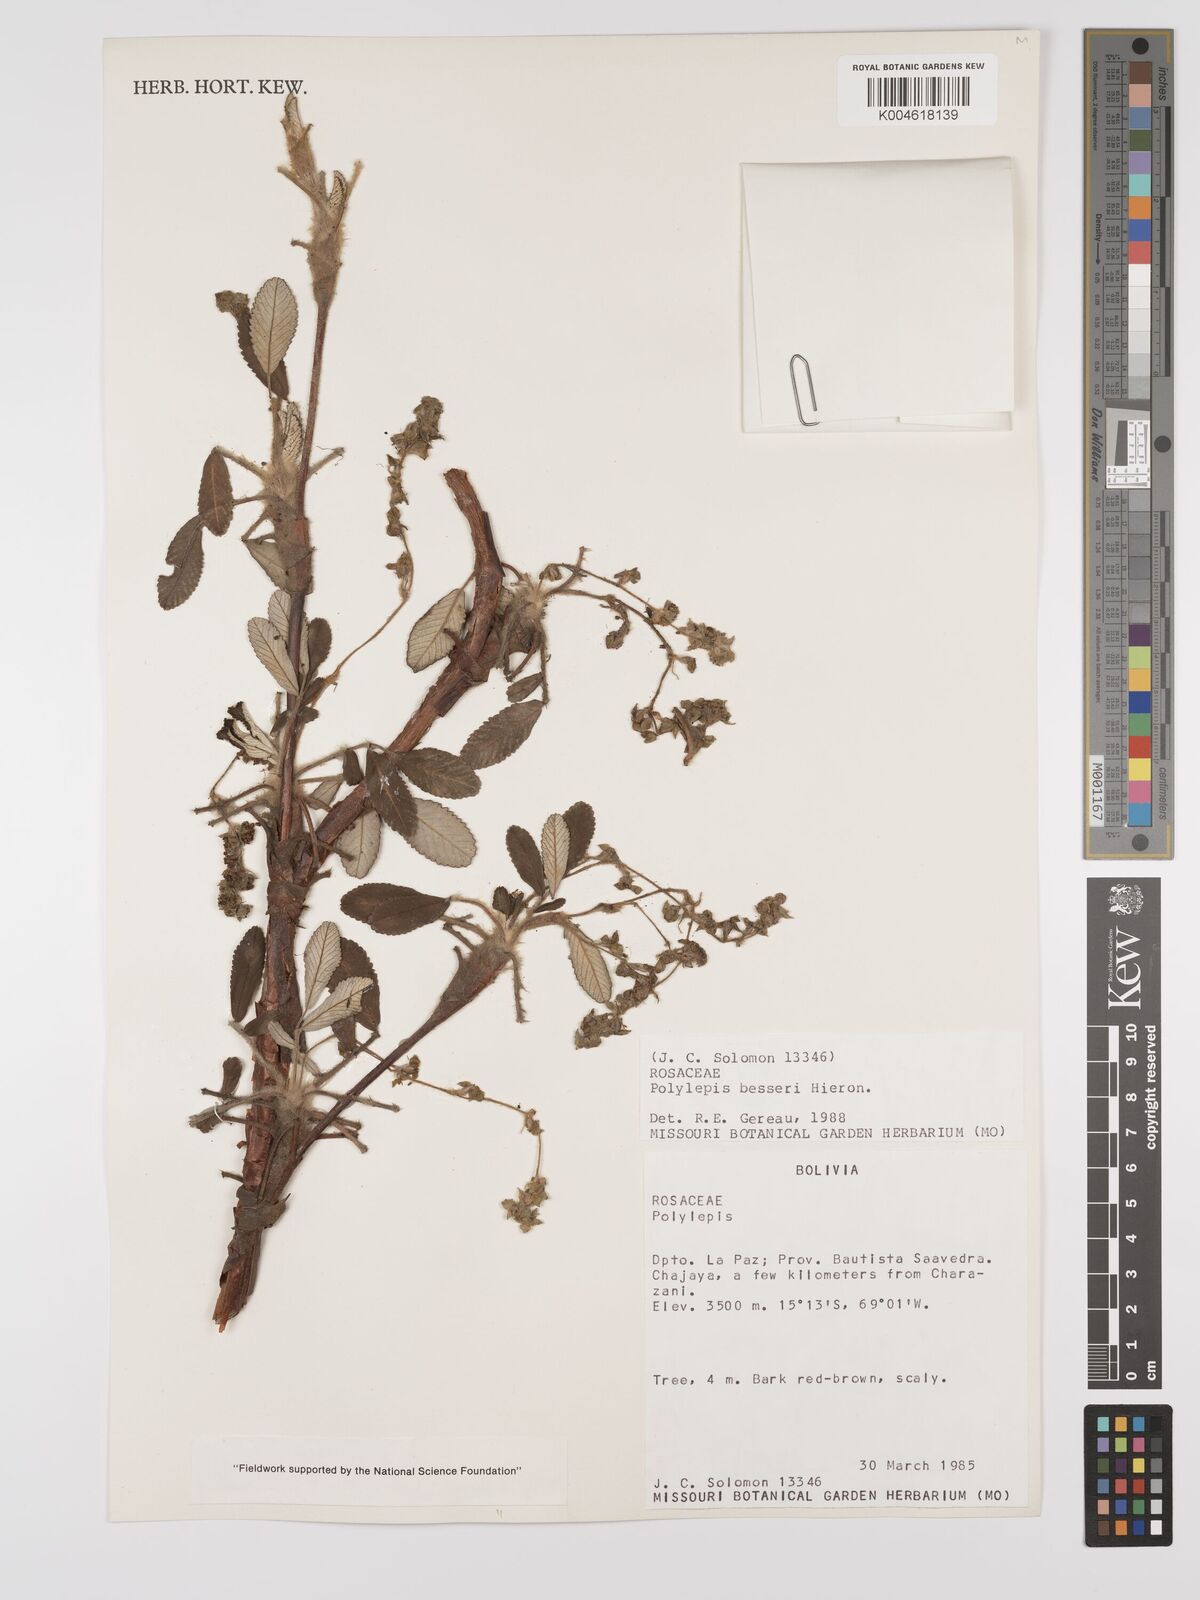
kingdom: Plantae
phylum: Tracheophyta
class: Magnoliopsida
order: Rosales
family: Rosaceae
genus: Polylepis
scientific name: Polylepis
